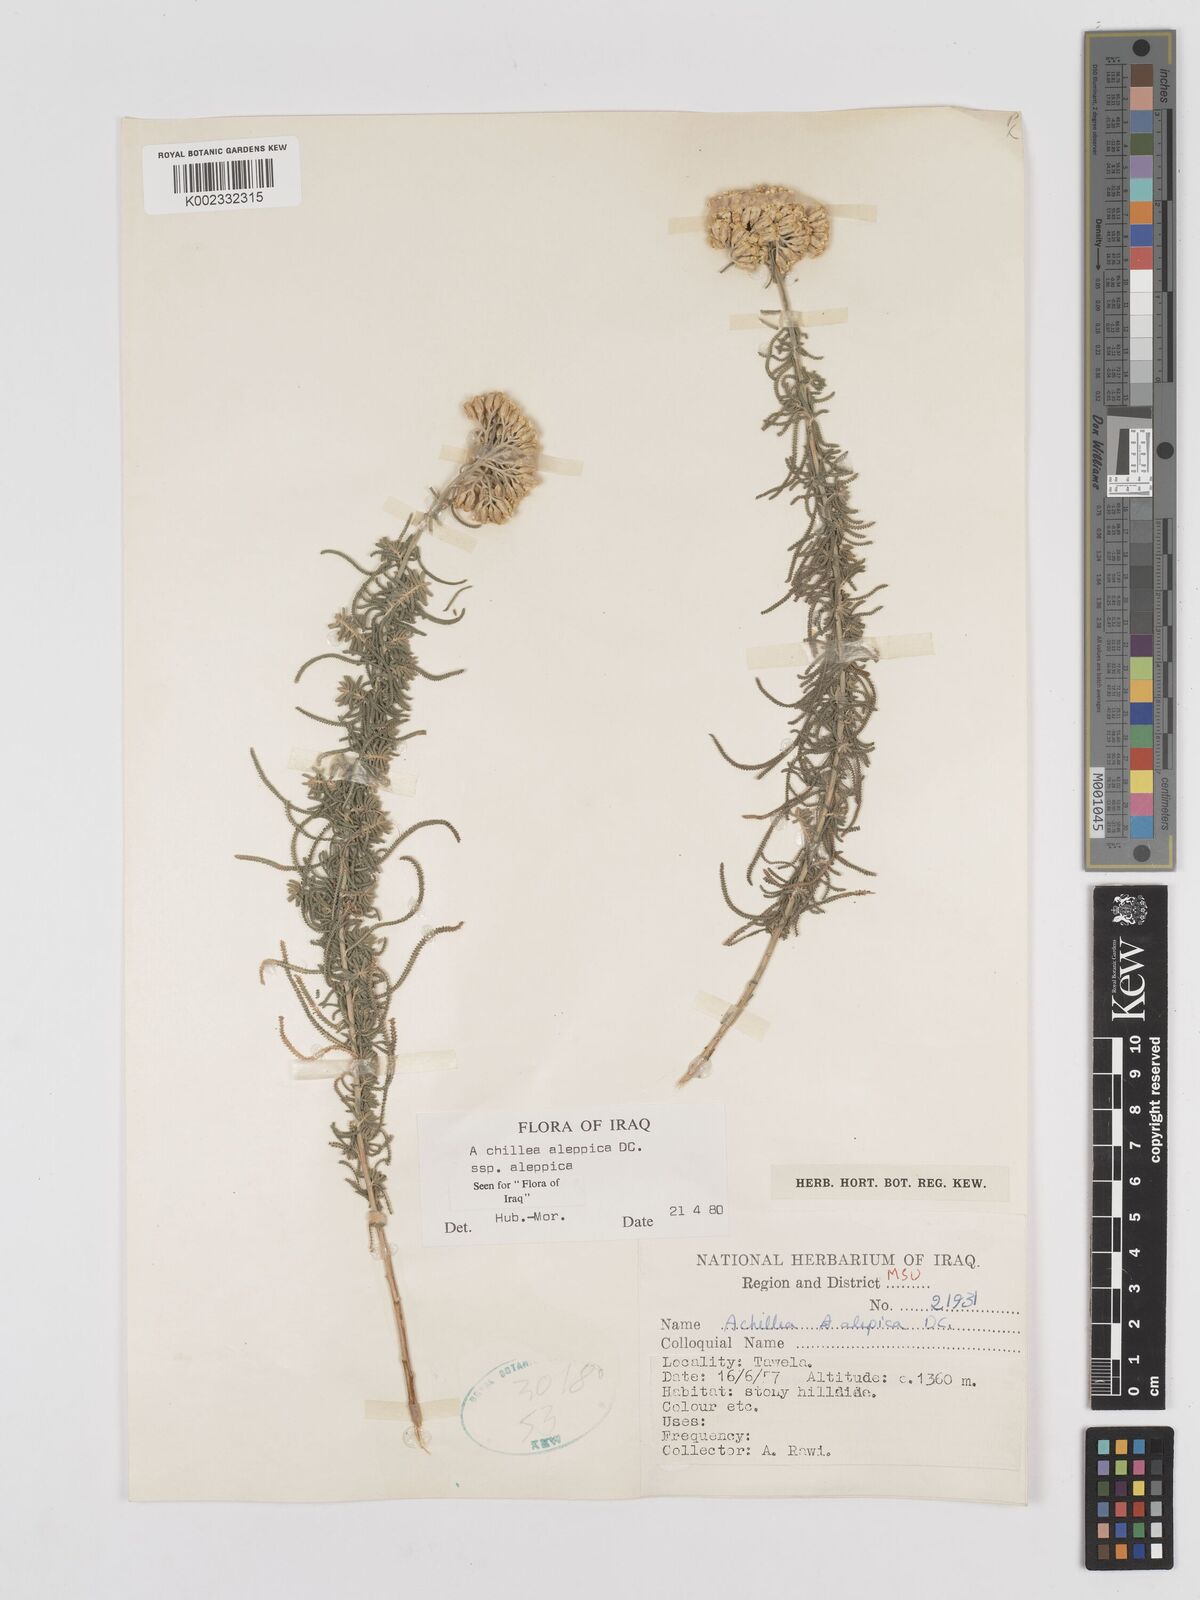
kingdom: Plantae
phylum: Tracheophyta
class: Magnoliopsida
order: Asterales
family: Asteraceae
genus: Achillea
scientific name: Achillea aleppica
